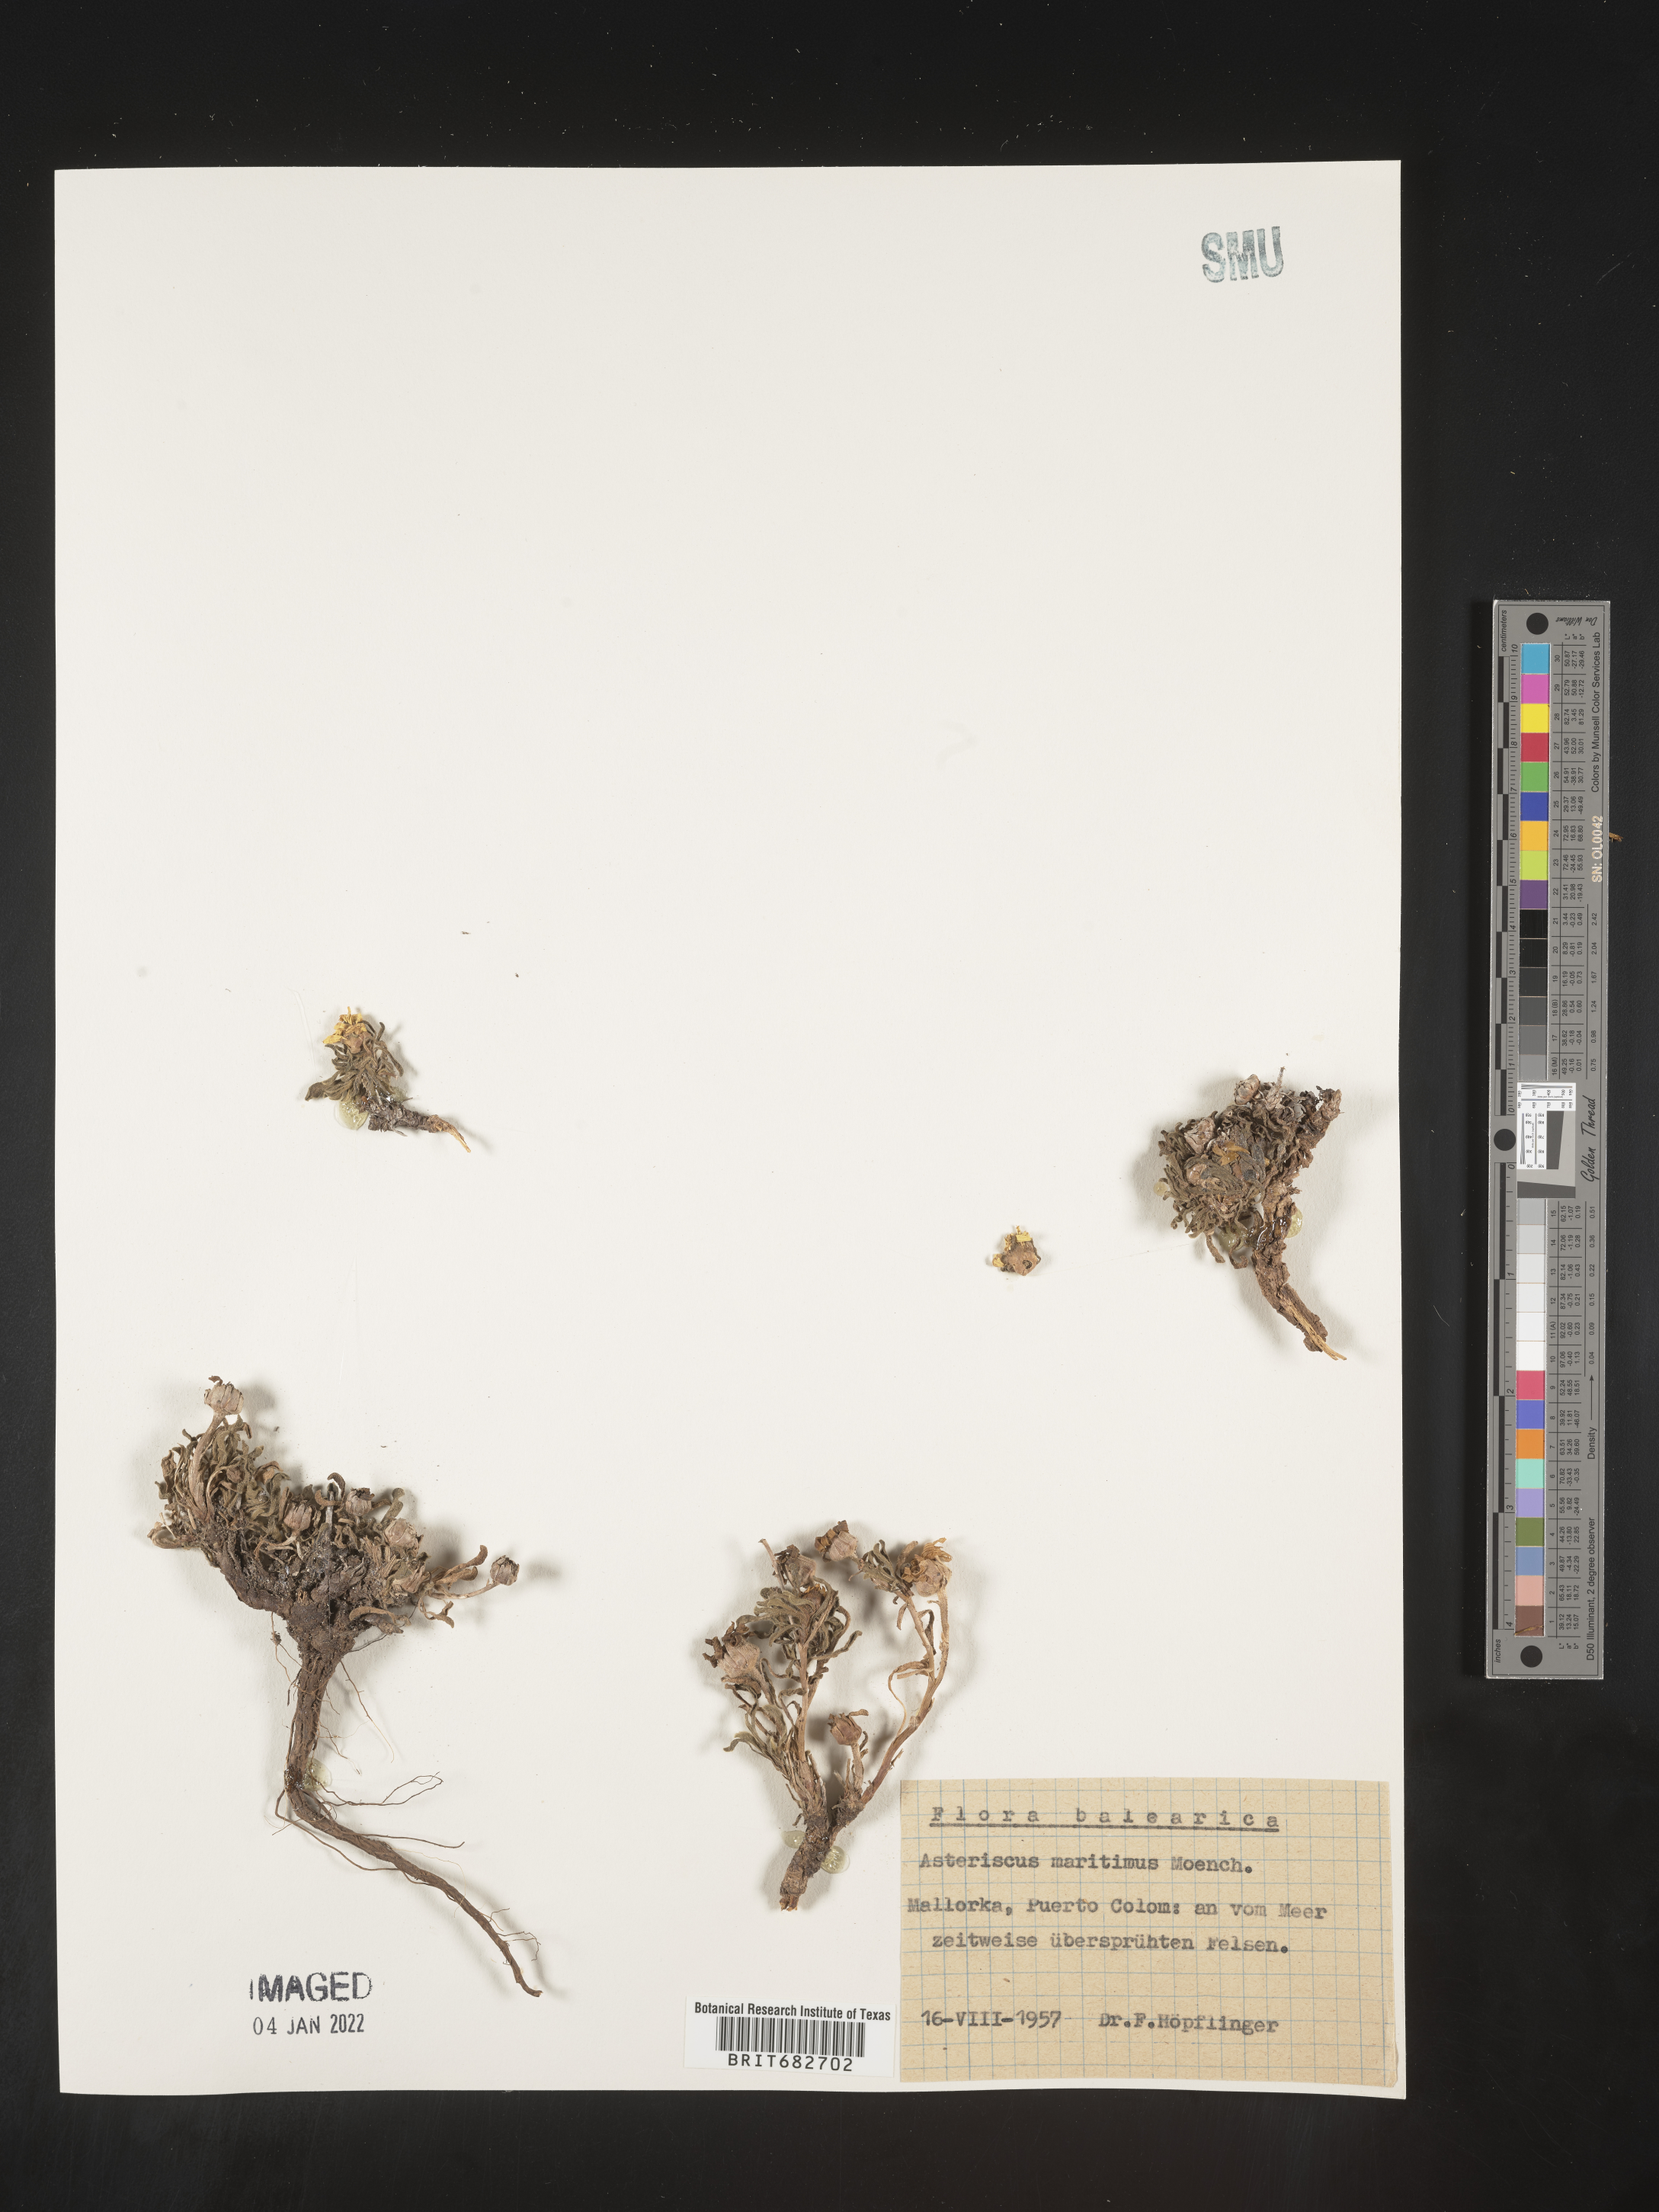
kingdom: Plantae
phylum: Tracheophyta
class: Magnoliopsida
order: Asterales
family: Asteraceae
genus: Asteriscus
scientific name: Asteriscus
